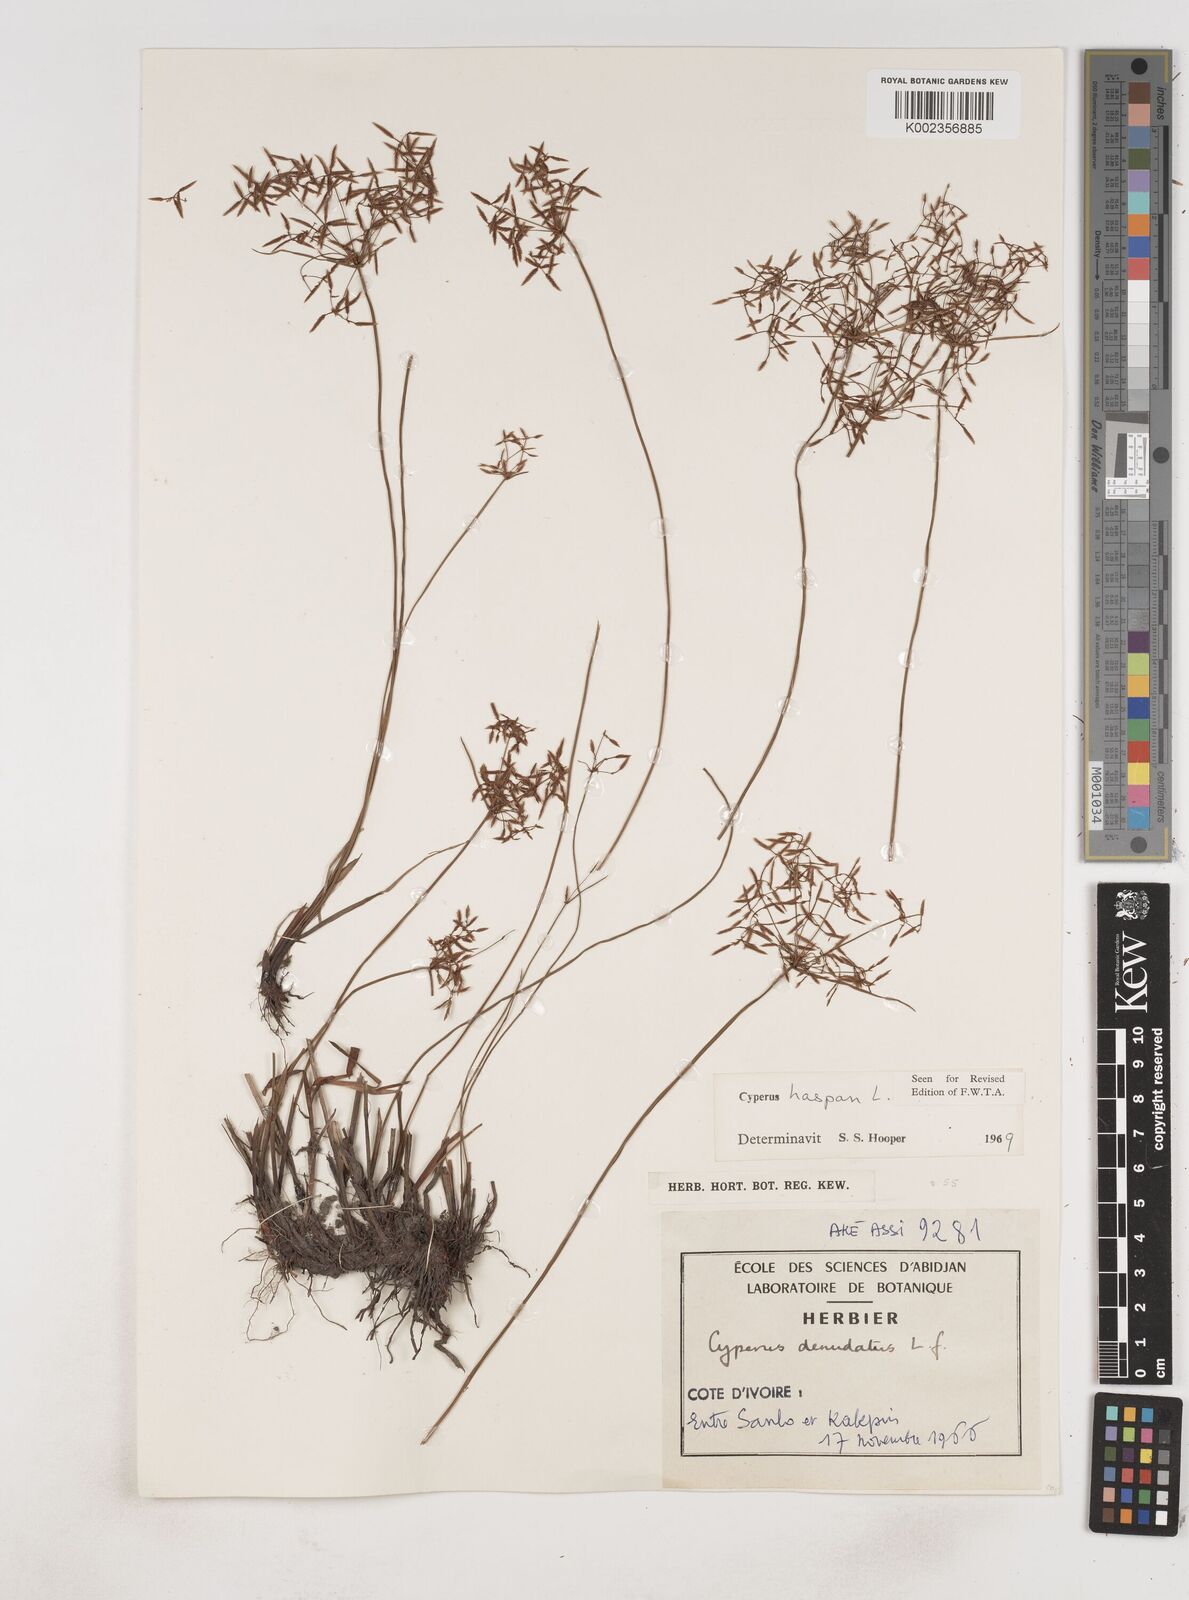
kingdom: Plantae
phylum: Tracheophyta
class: Liliopsida
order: Poales
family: Cyperaceae
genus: Cyperus
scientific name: Cyperus haspan
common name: Haspan flatsedge
